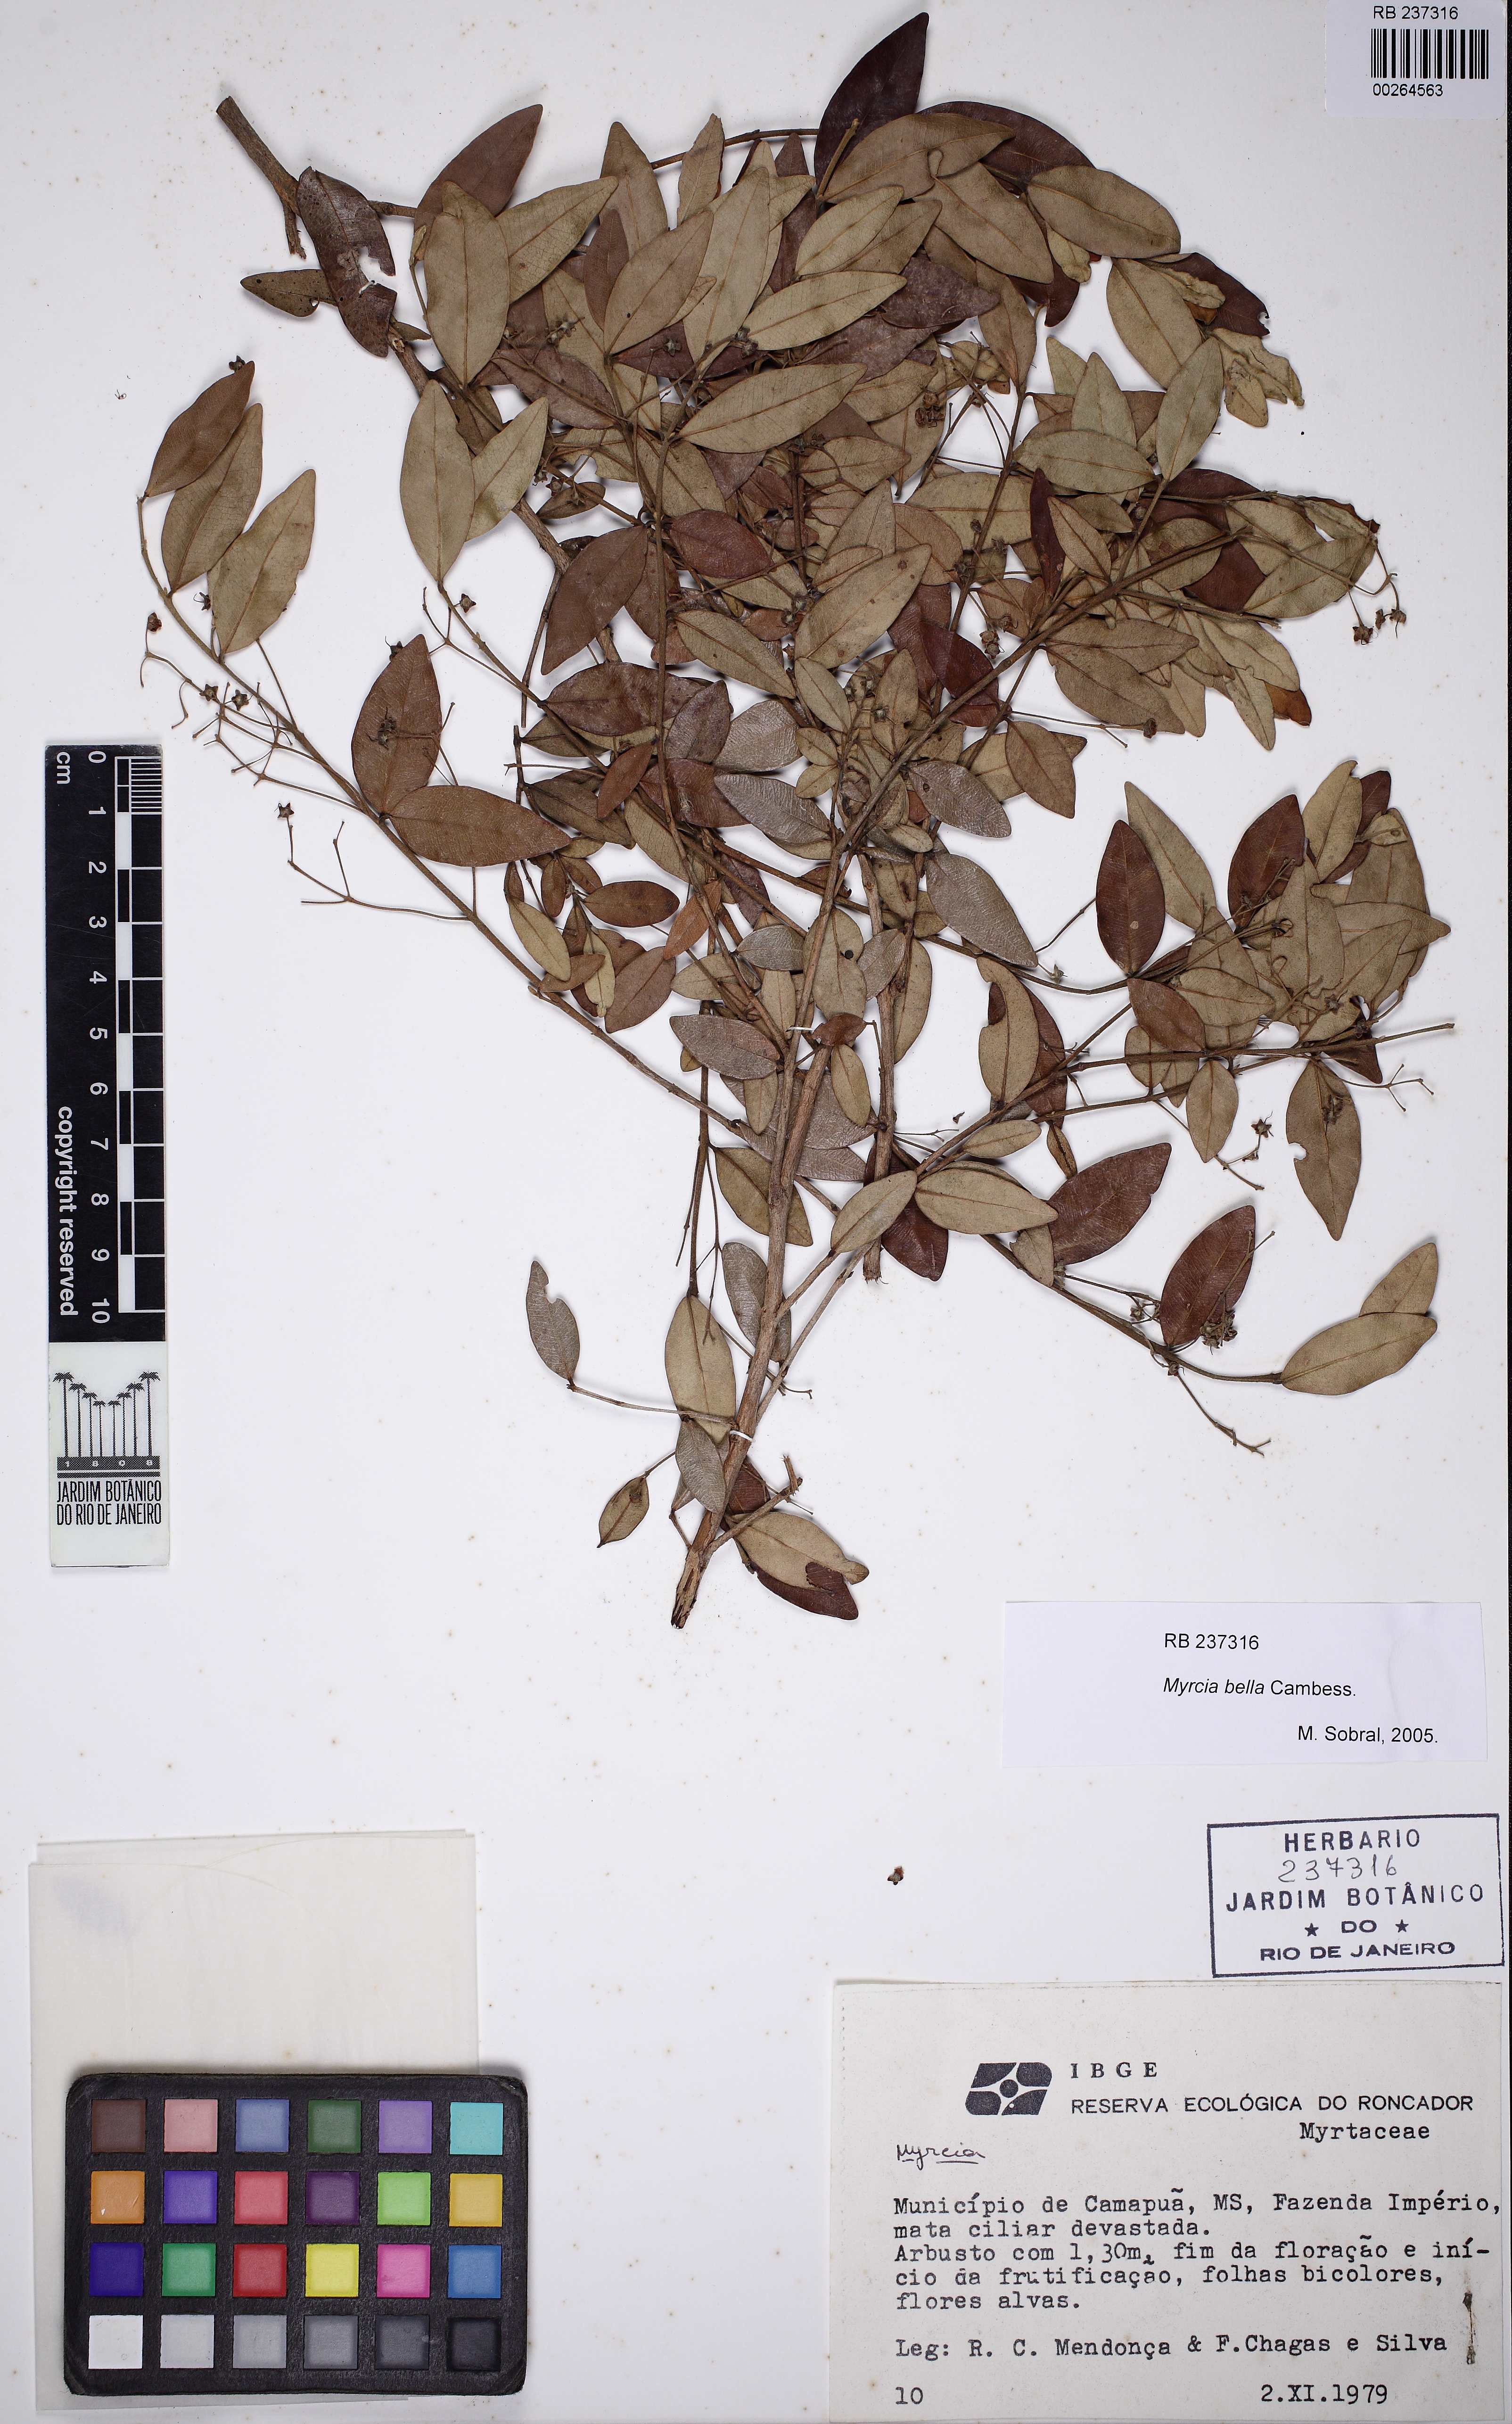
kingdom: Plantae
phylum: Tracheophyta
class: Magnoliopsida
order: Myrtales
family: Myrtaceae
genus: Myrcia
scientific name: Myrcia bella
